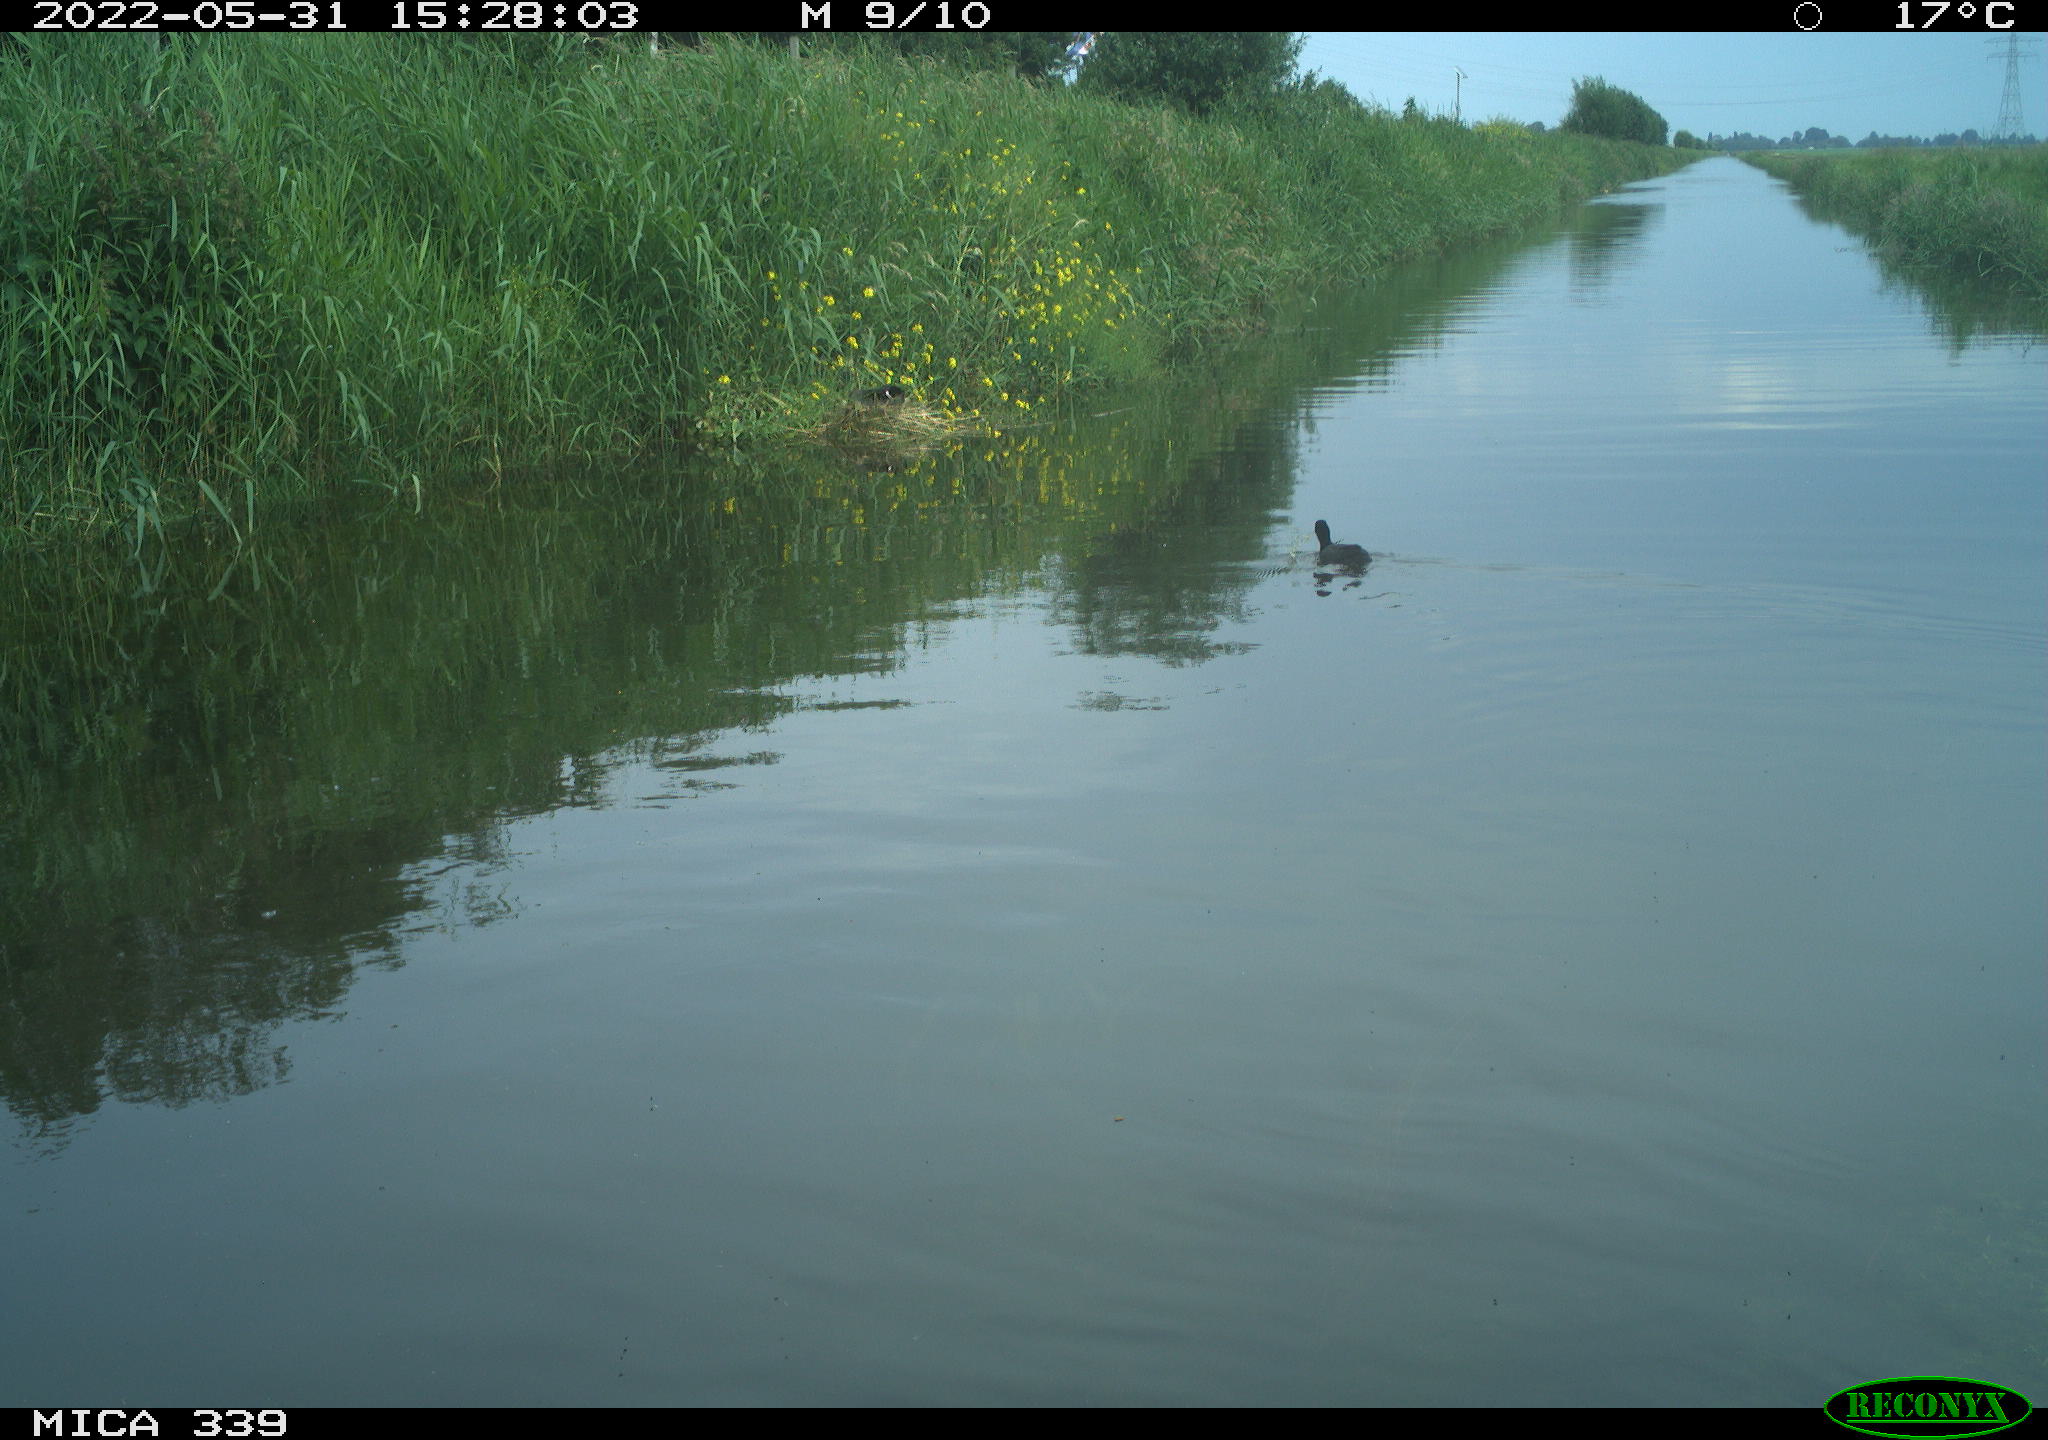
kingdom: Animalia
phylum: Chordata
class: Aves
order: Gruiformes
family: Rallidae
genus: Fulica
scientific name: Fulica atra
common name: Eurasian coot
